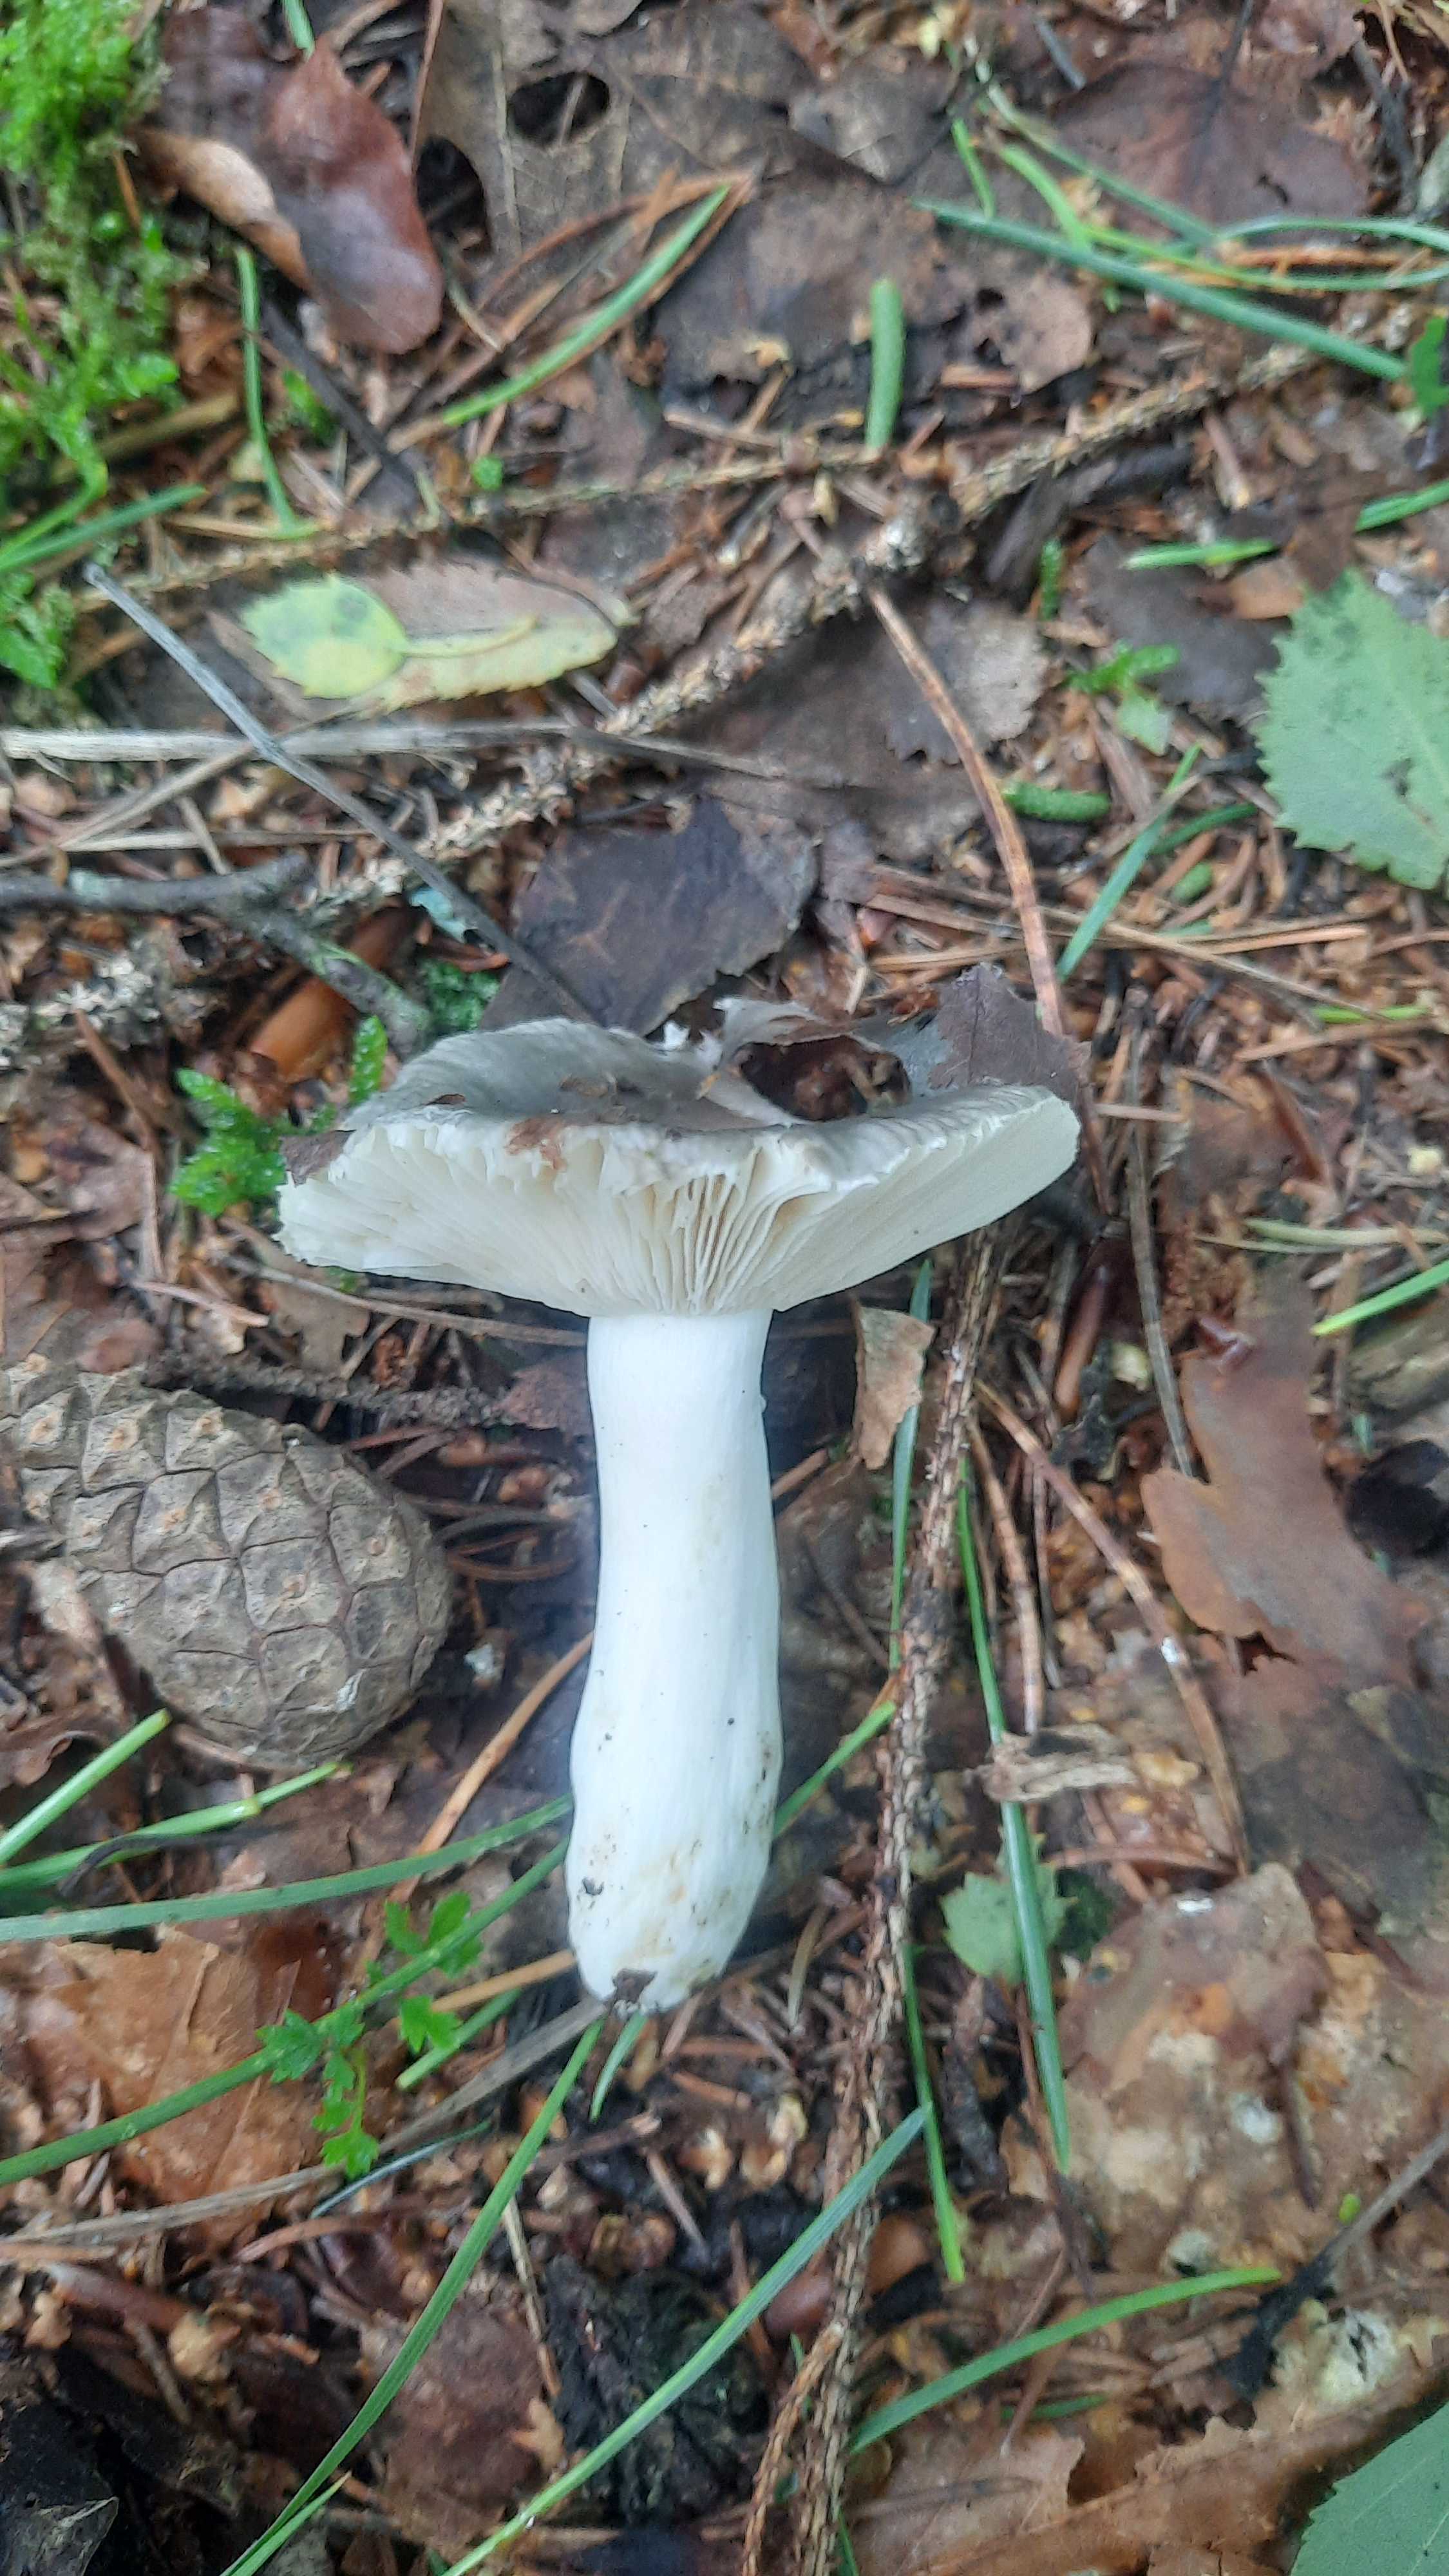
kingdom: Fungi
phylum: Basidiomycota
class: Agaricomycetes
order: Russulales
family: Russulaceae
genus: Russula
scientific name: Russula
